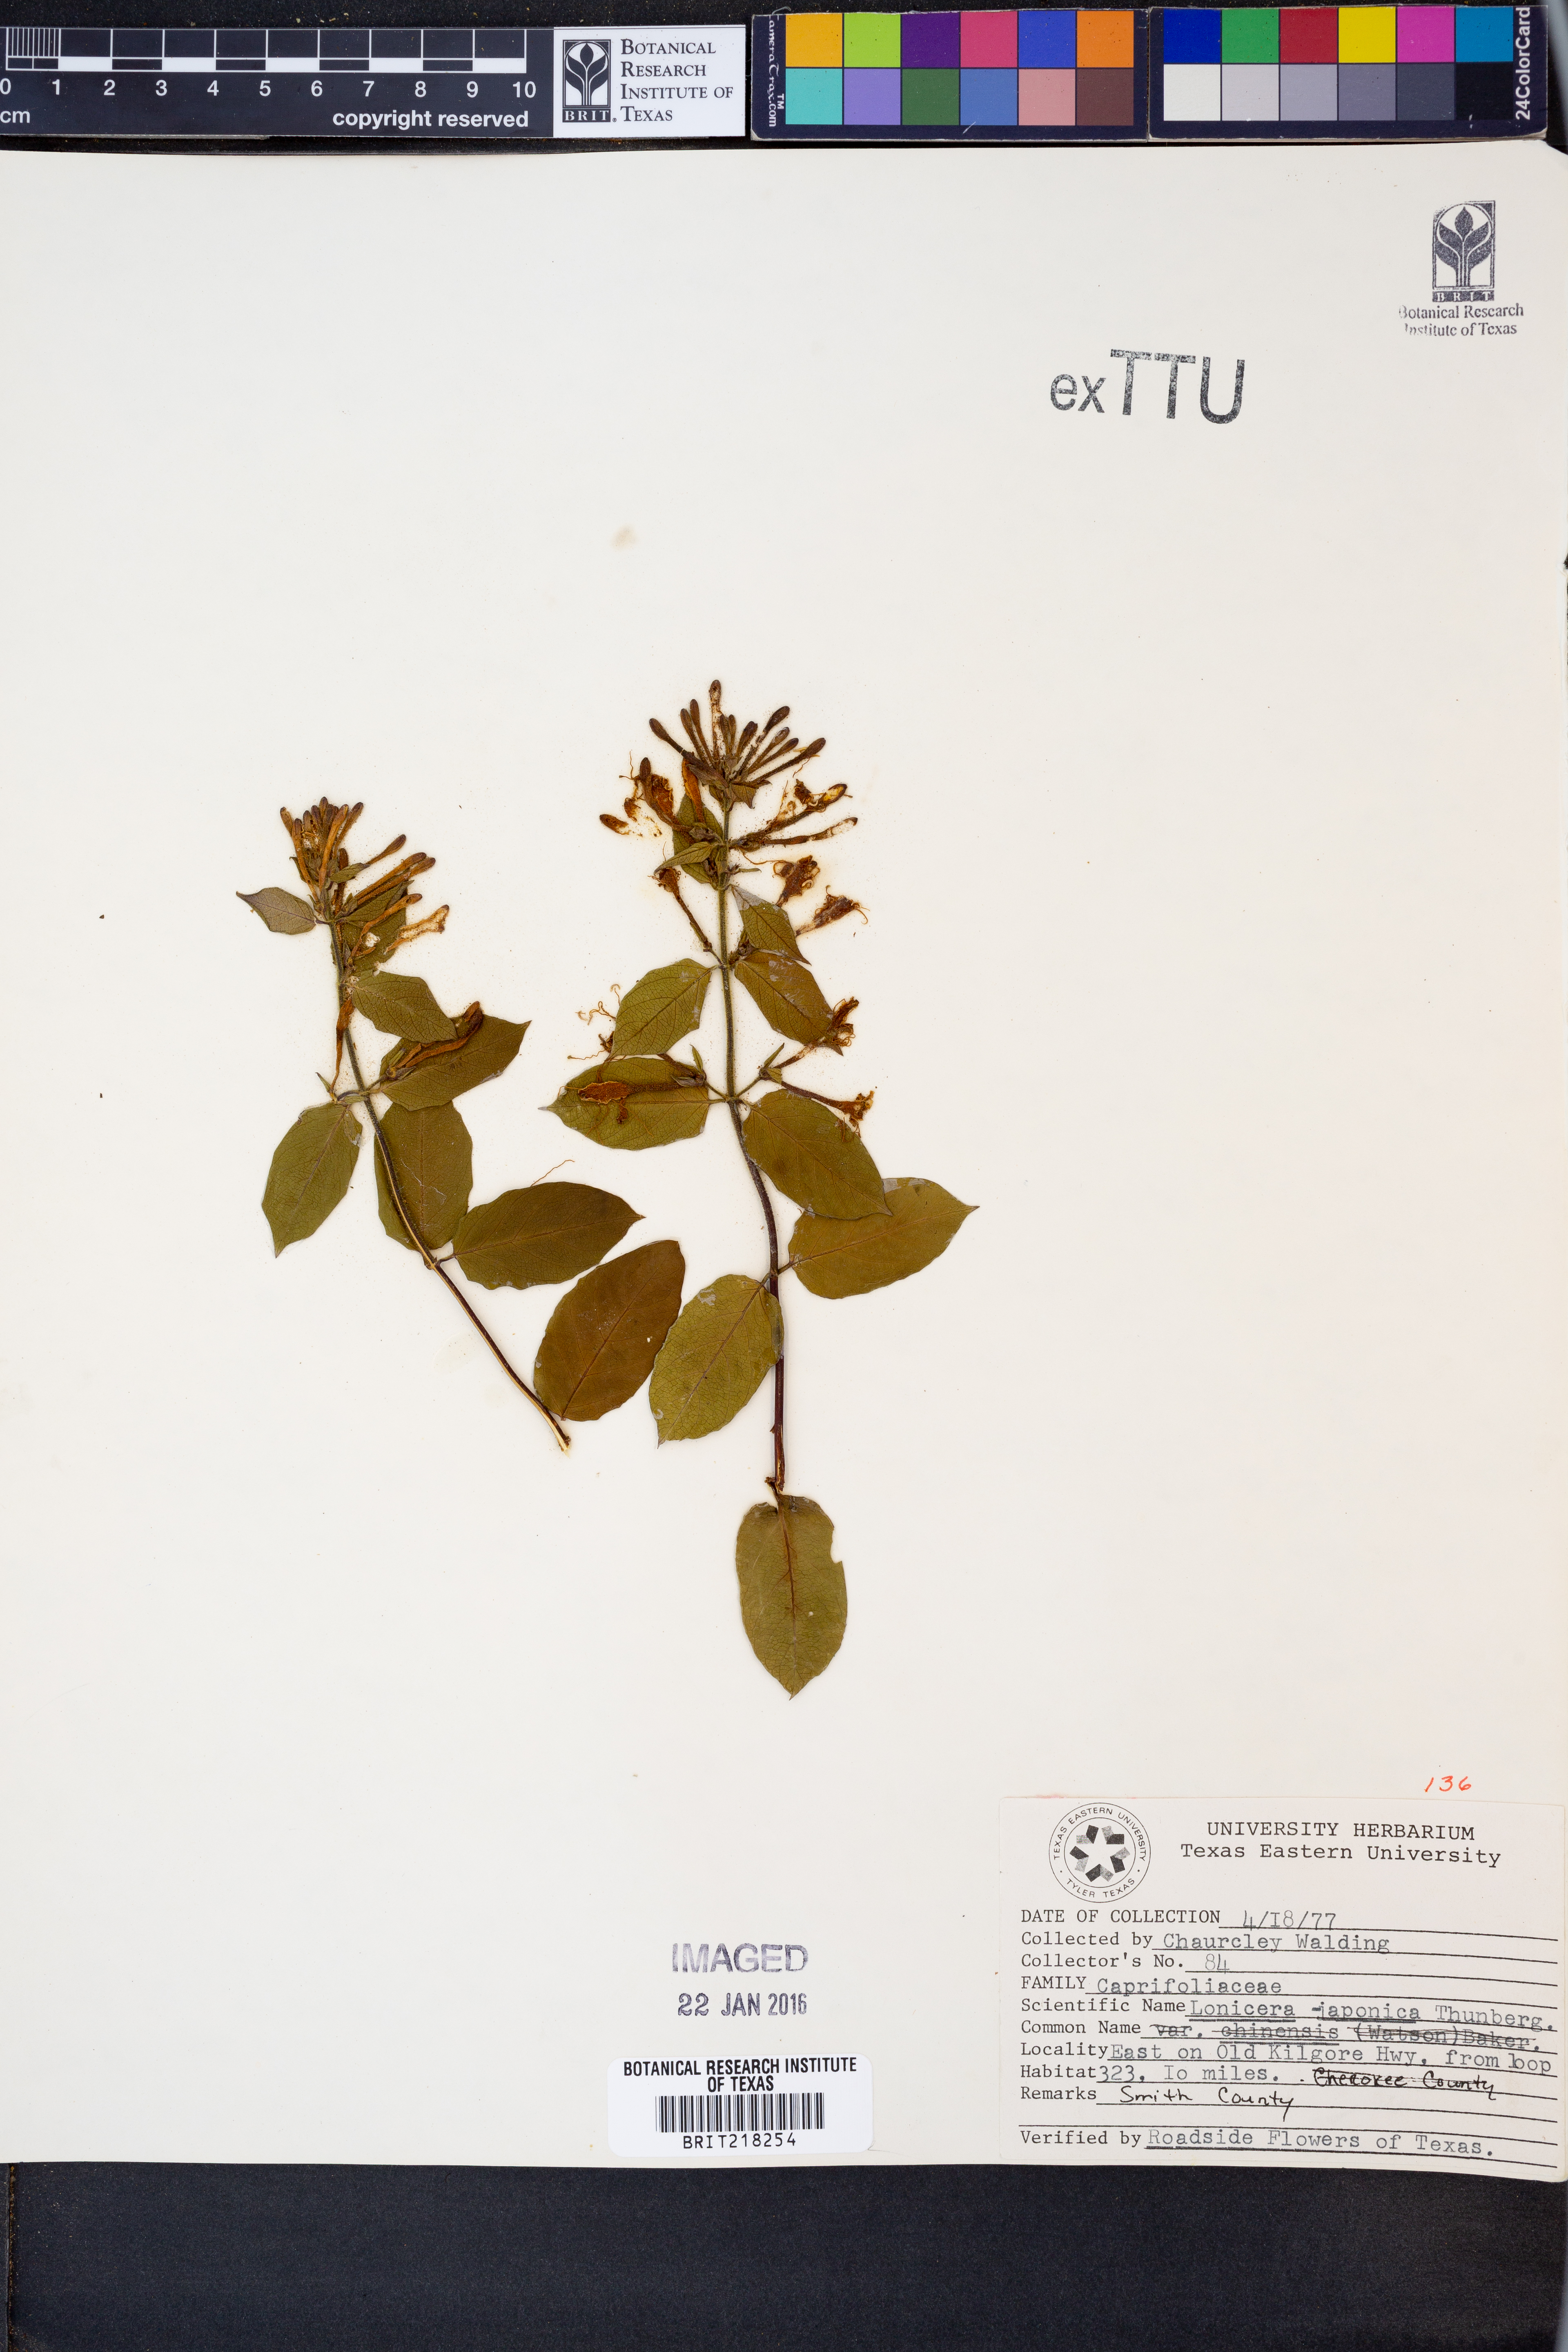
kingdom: Plantae
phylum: Tracheophyta
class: Magnoliopsida
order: Dipsacales
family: Caprifoliaceae
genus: Lonicera
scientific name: Lonicera japonica
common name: Japanese honeysuckle
